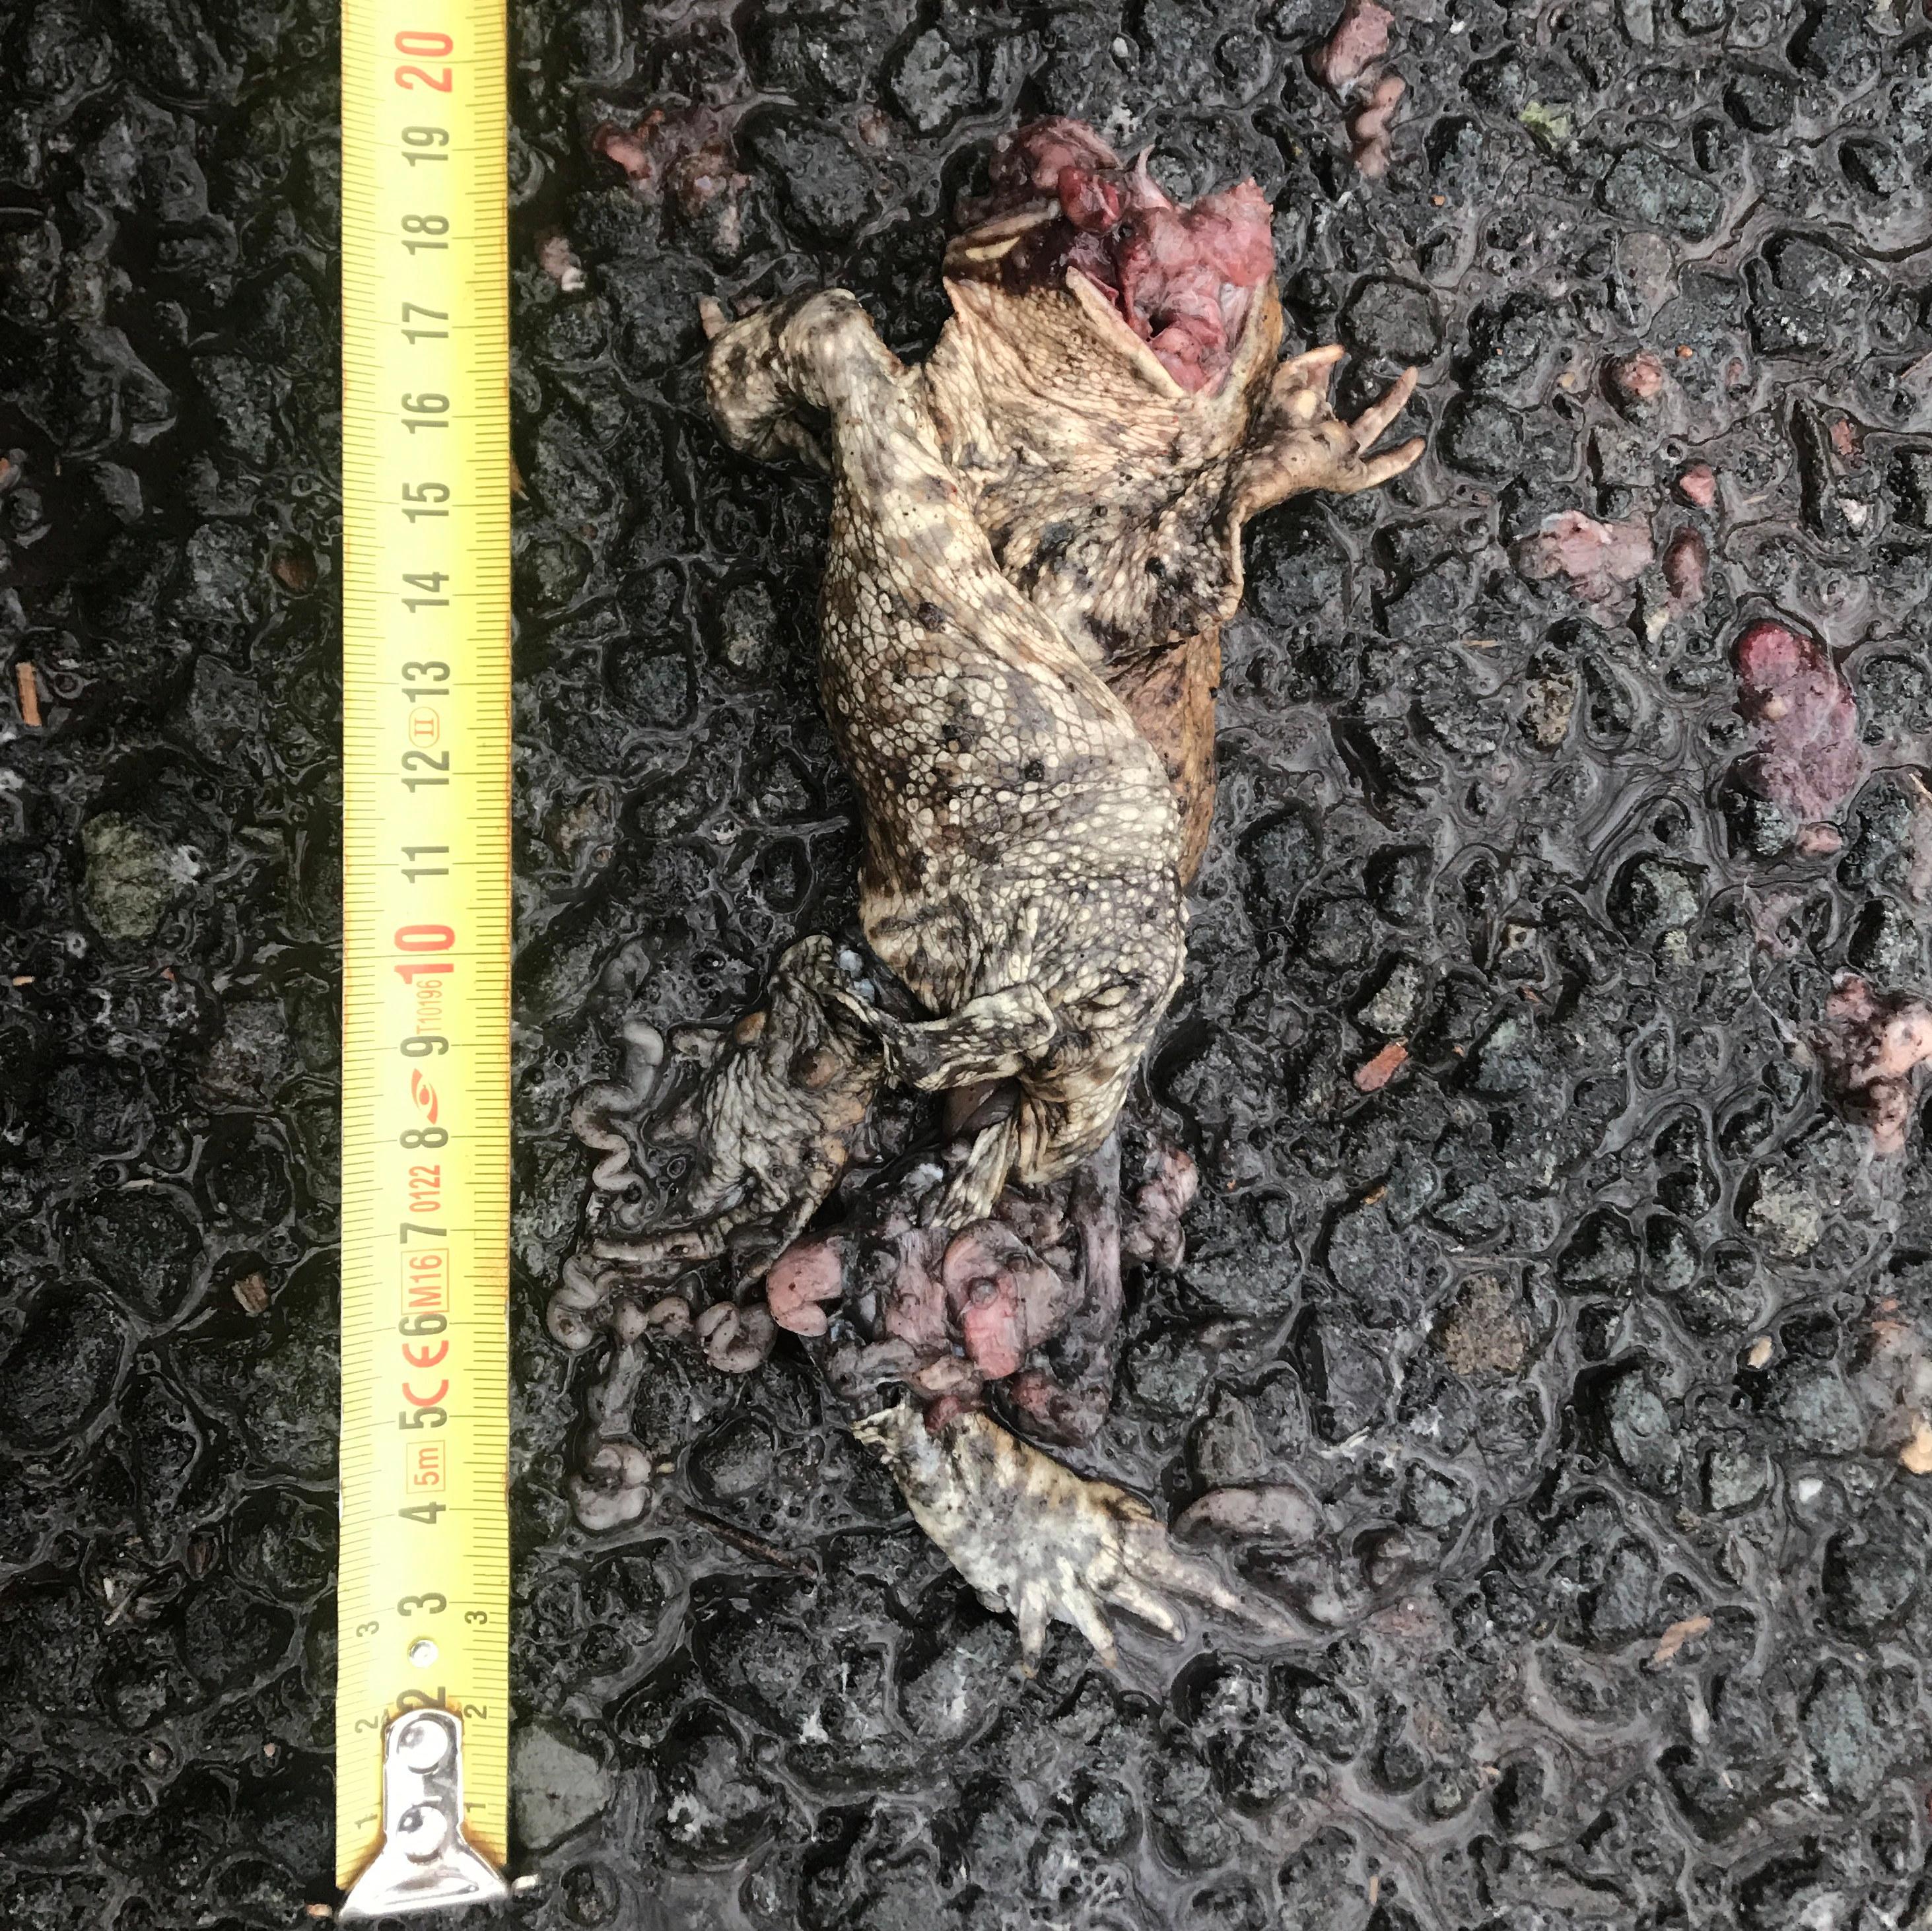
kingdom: Animalia
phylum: Chordata
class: Amphibia
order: Anura
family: Bufonidae
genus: Bufo
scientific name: Bufo bufo
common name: Common toad
